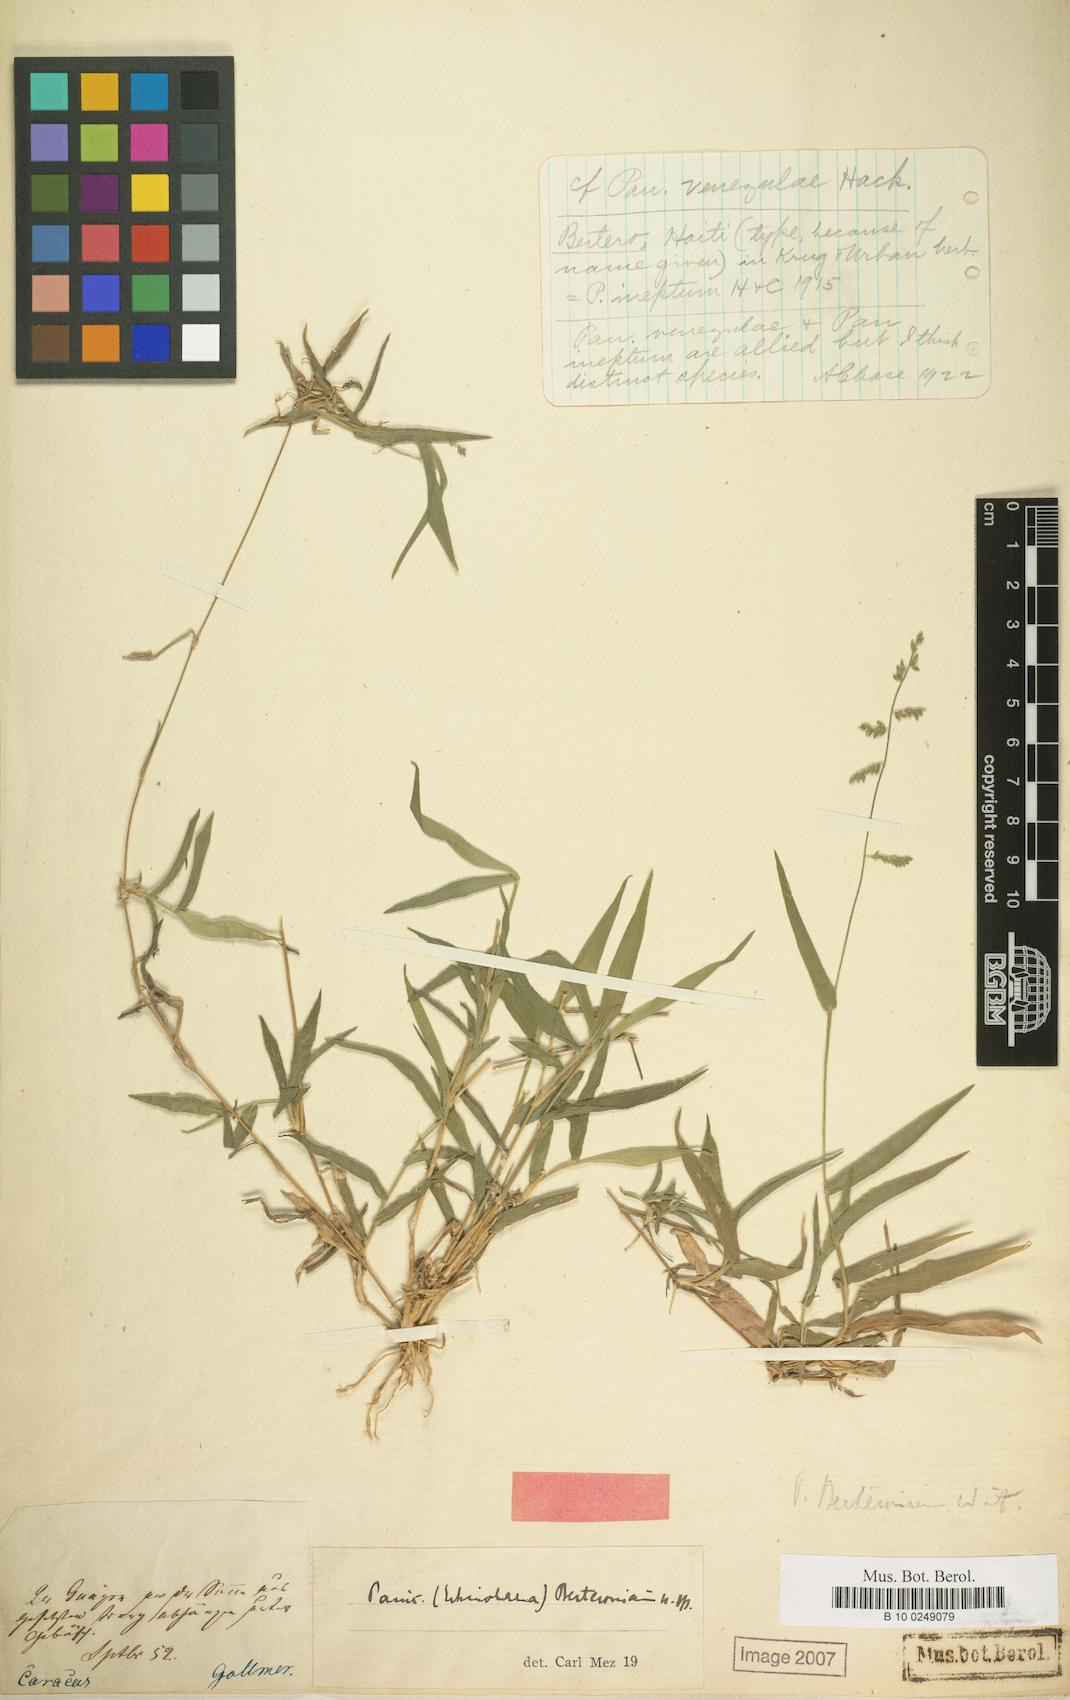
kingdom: Plantae
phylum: Tracheophyta
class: Liliopsida
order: Poales
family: Poaceae
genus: Setaria
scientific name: Setaria parviflora
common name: Knotroot bristle-grass
